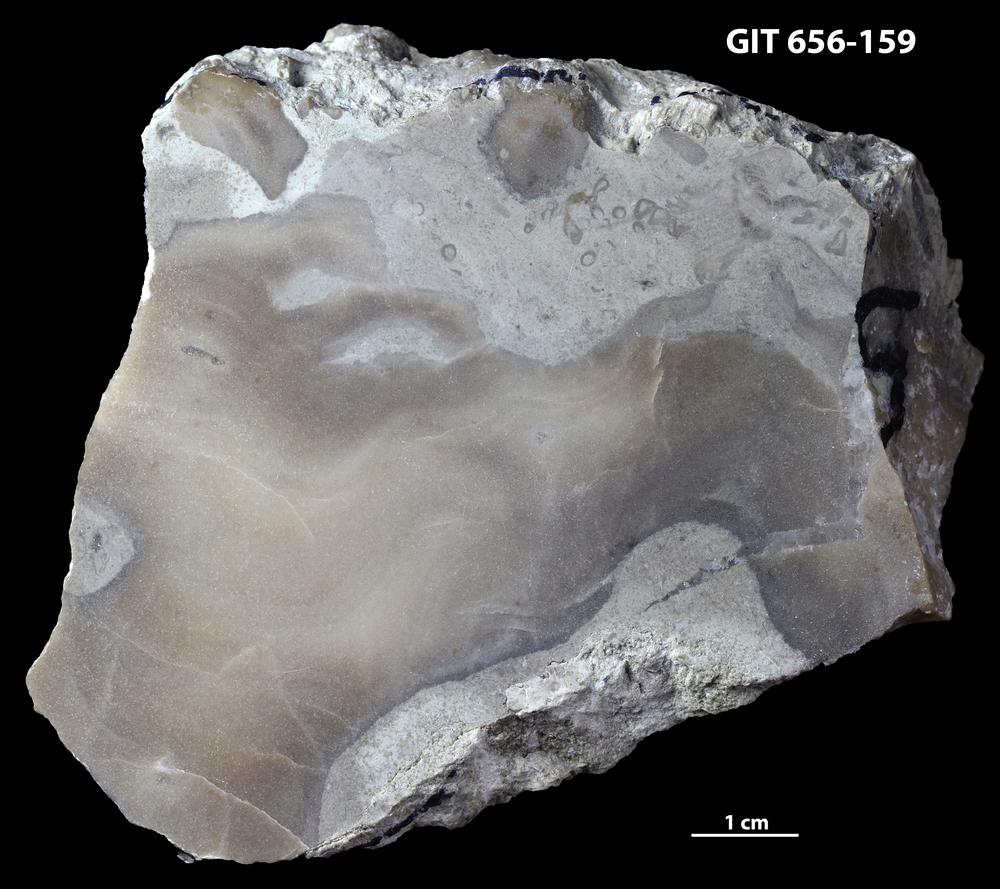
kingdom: Animalia
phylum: Porifera
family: Actinostromatidae
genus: Plectostroma
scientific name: Plectostroma
